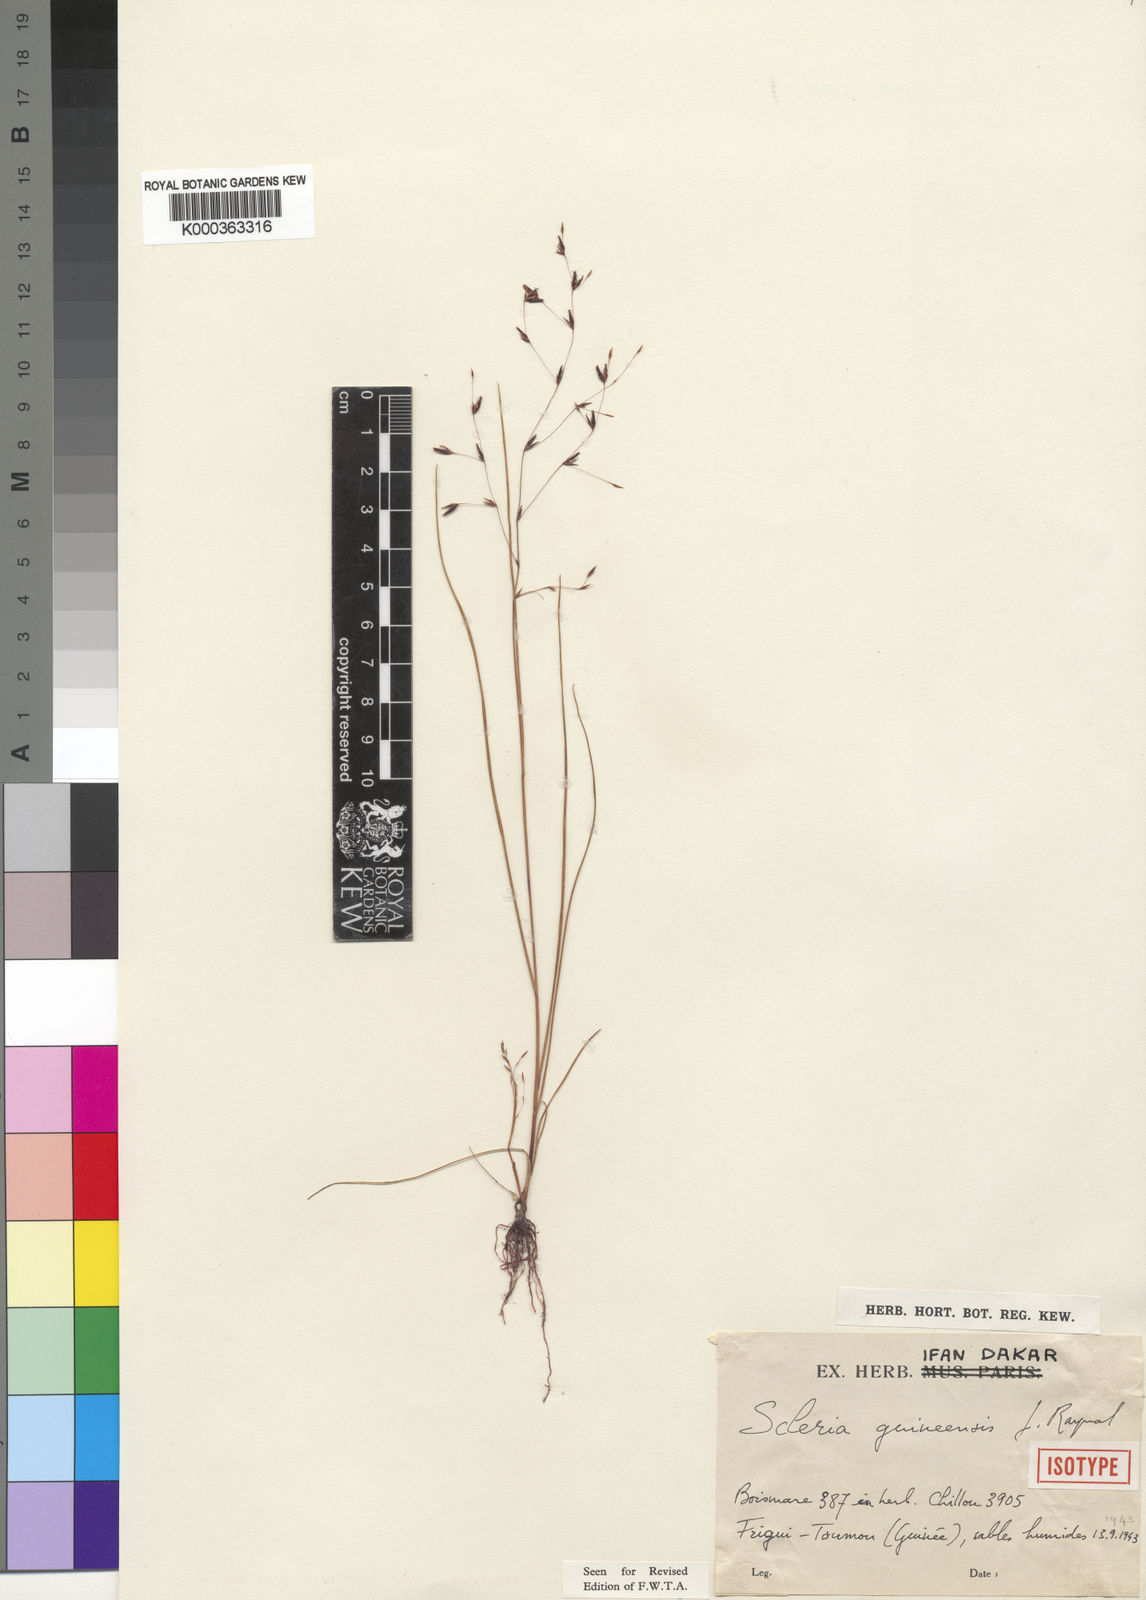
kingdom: Plantae
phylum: Tracheophyta
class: Liliopsida
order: Poales
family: Cyperaceae
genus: Scleria
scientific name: Scleria guineensis
